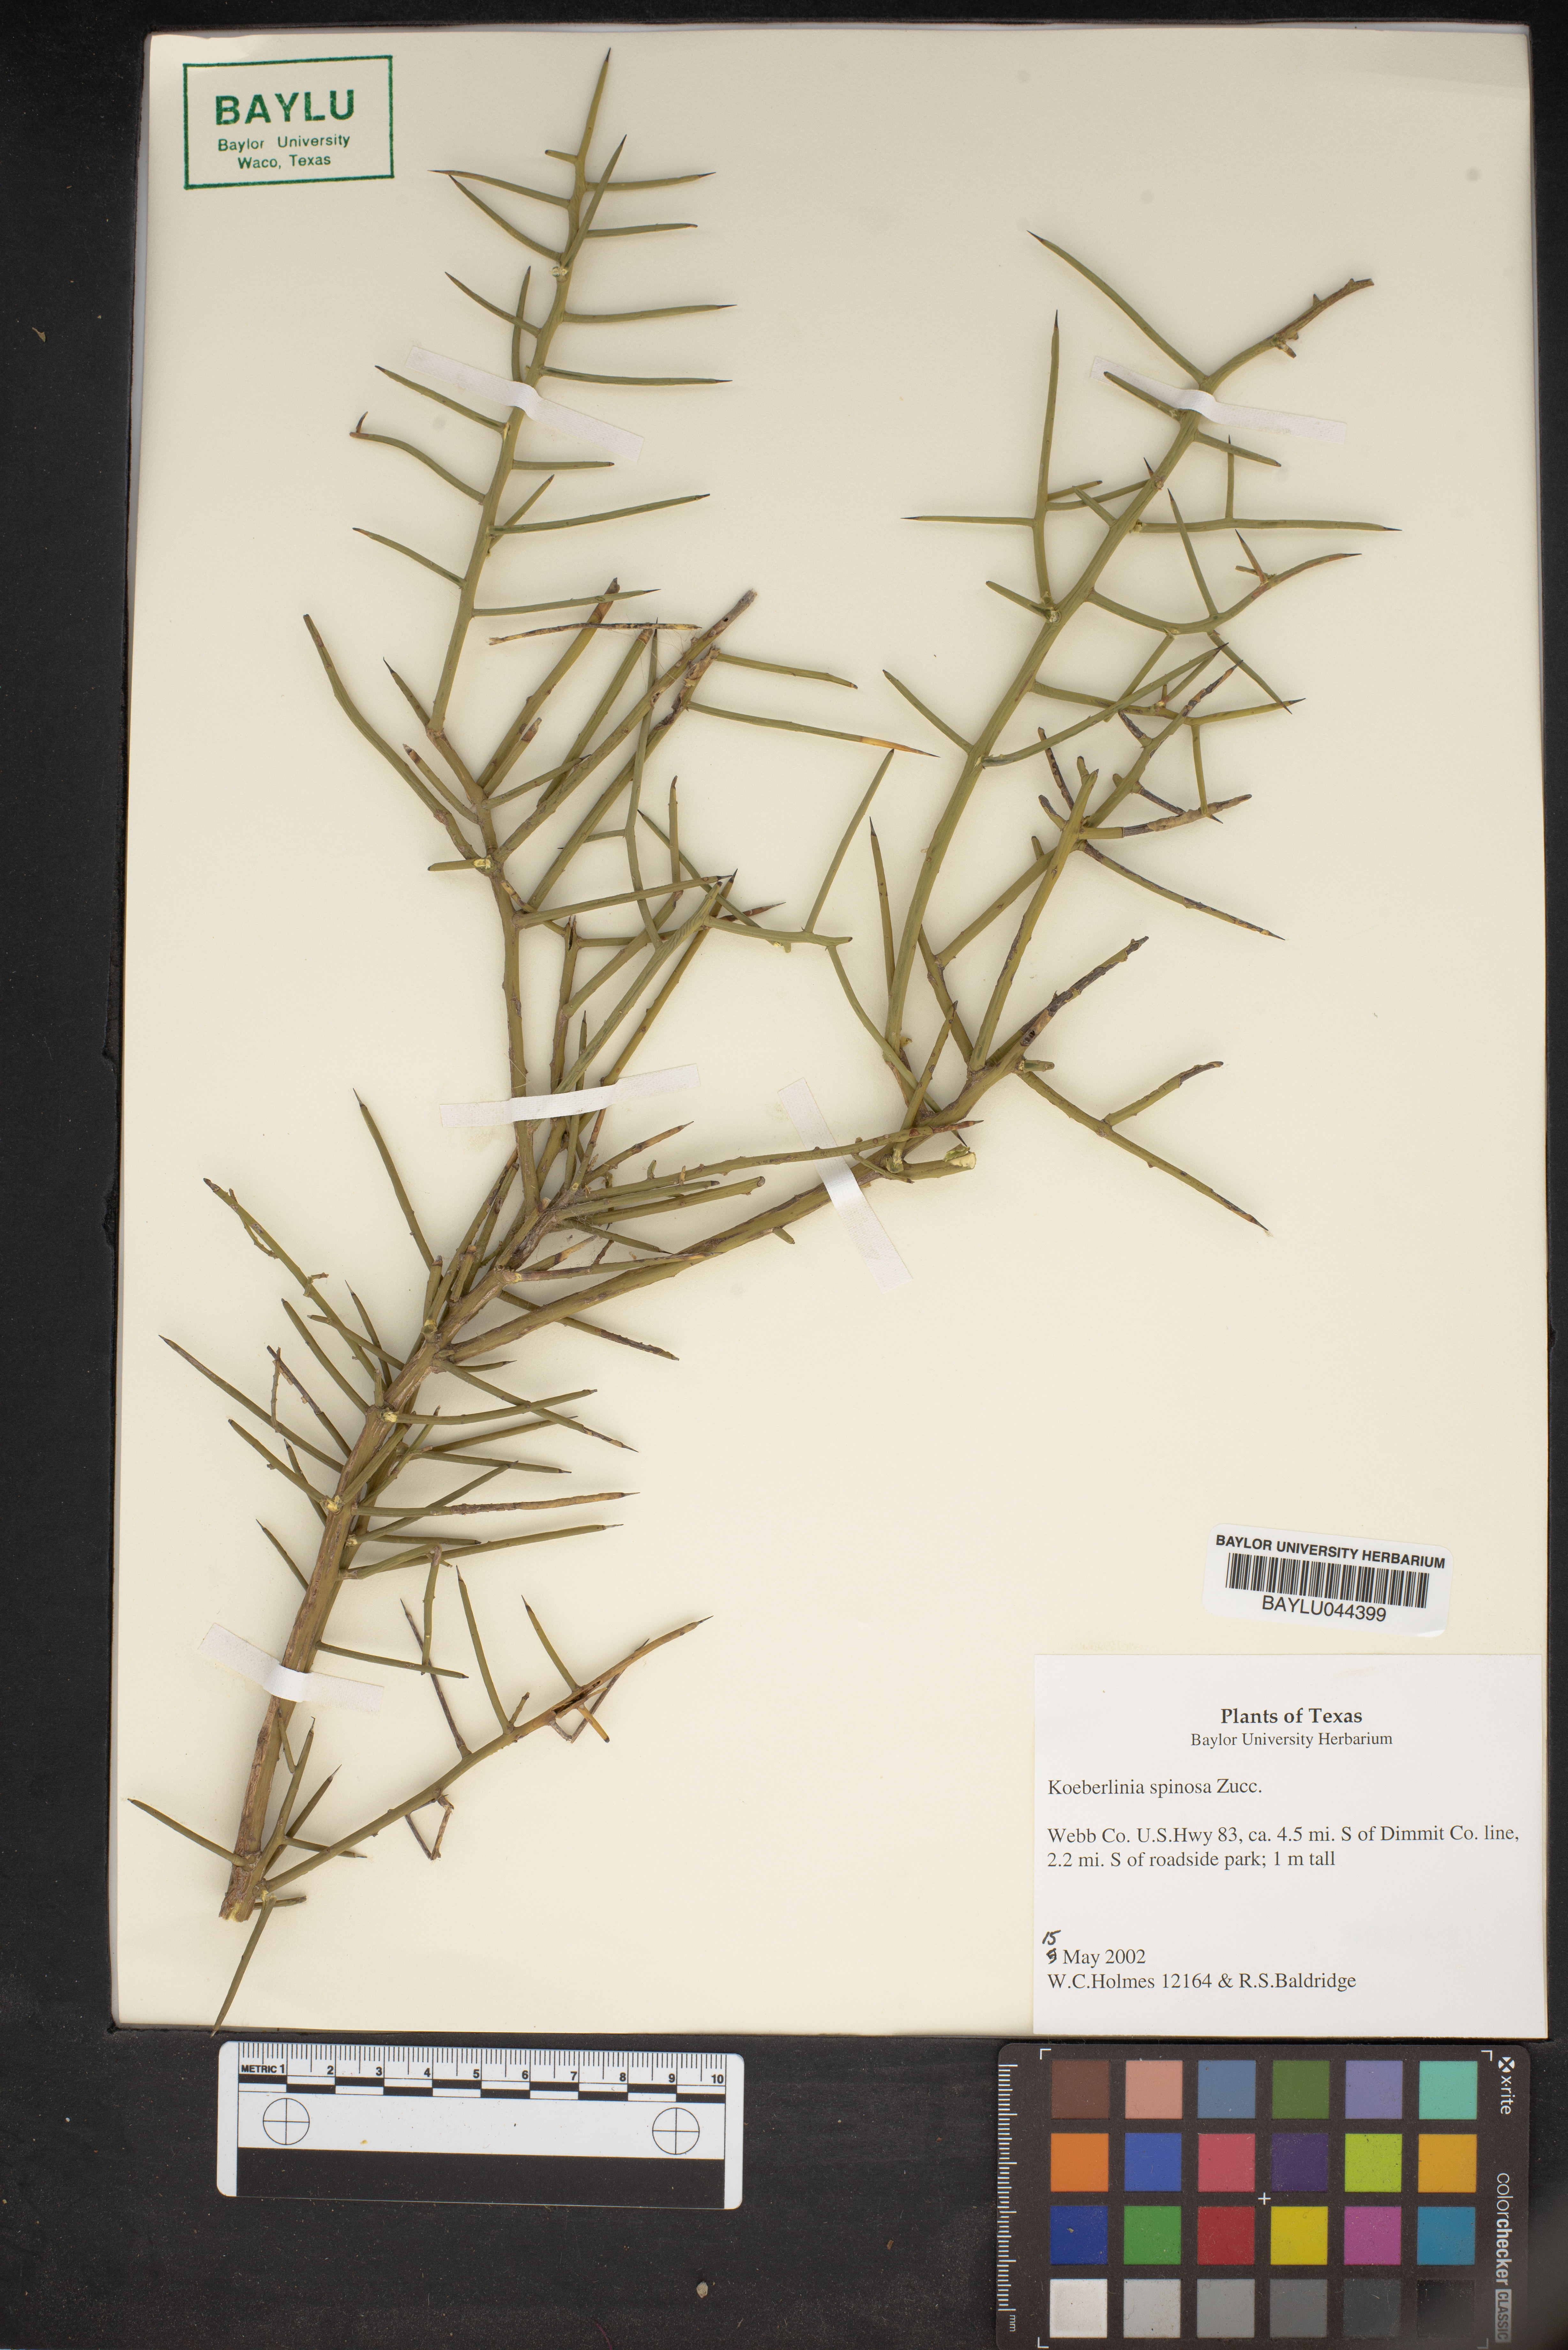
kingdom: Plantae
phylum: Tracheophyta
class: Magnoliopsida
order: Brassicales
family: Koeberliniaceae
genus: Koeberlinia
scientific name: Koeberlinia spinosa
